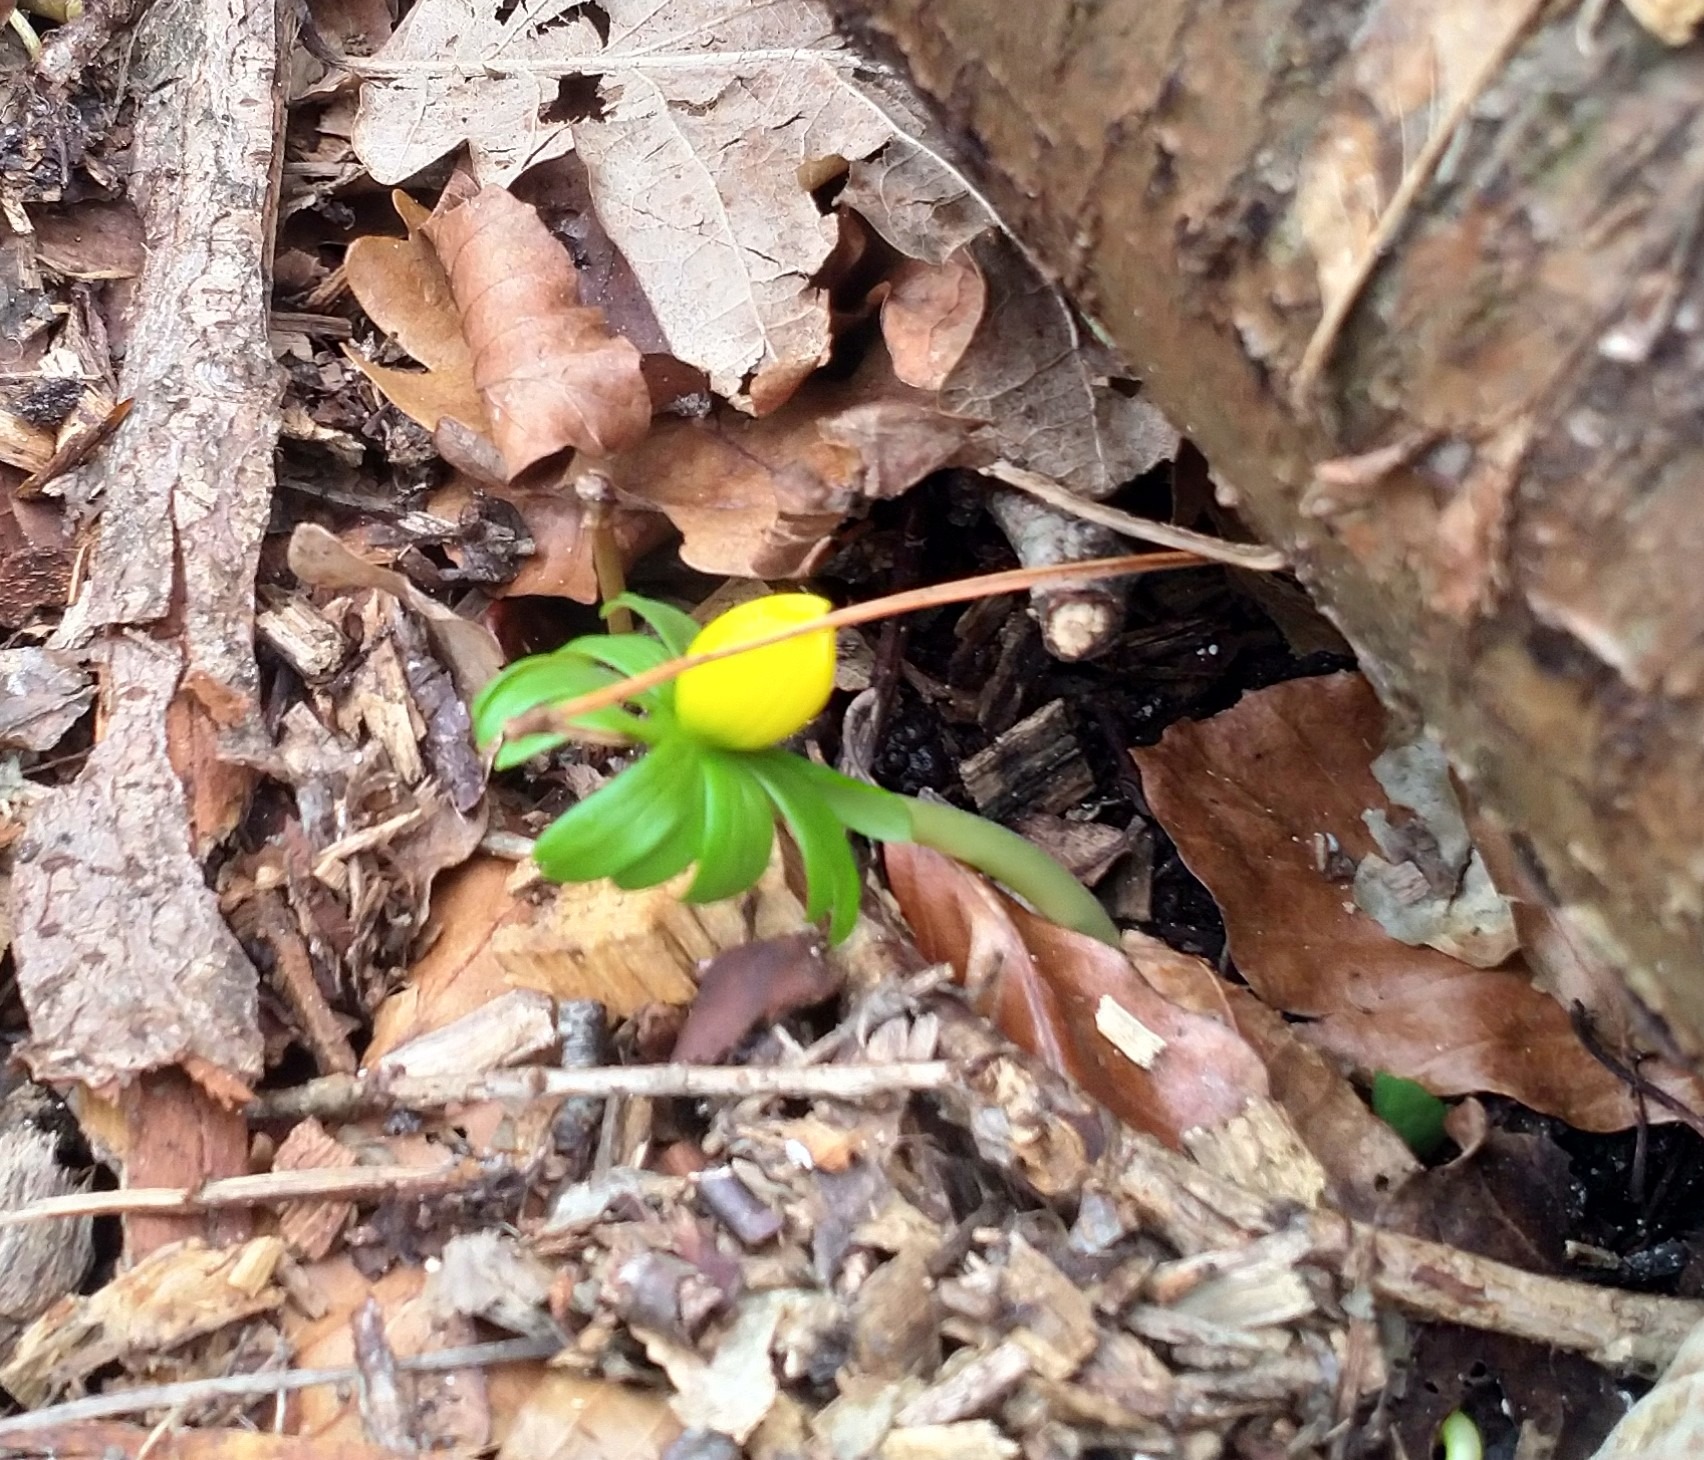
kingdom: Plantae
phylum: Tracheophyta
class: Magnoliopsida
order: Ranunculales
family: Ranunculaceae
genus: Eranthis
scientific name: Eranthis hyemalis
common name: Erantis
